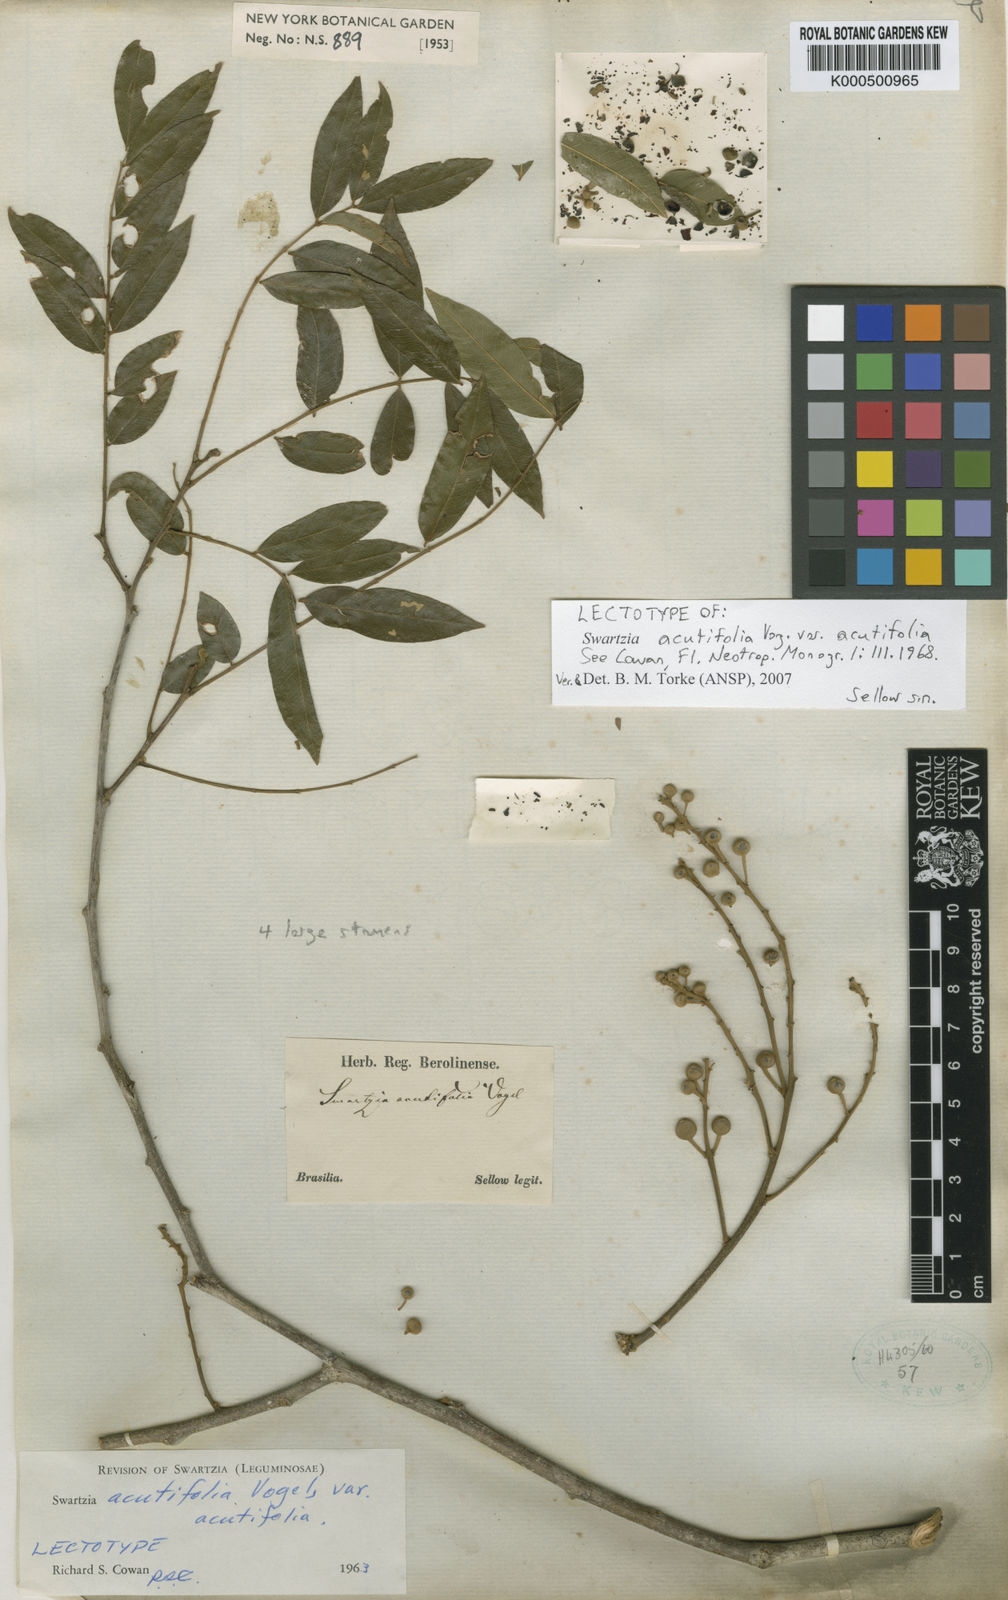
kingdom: Plantae
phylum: Tracheophyta
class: Magnoliopsida
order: Fabales
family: Fabaceae
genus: Swartzia
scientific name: Swartzia acutifolia
